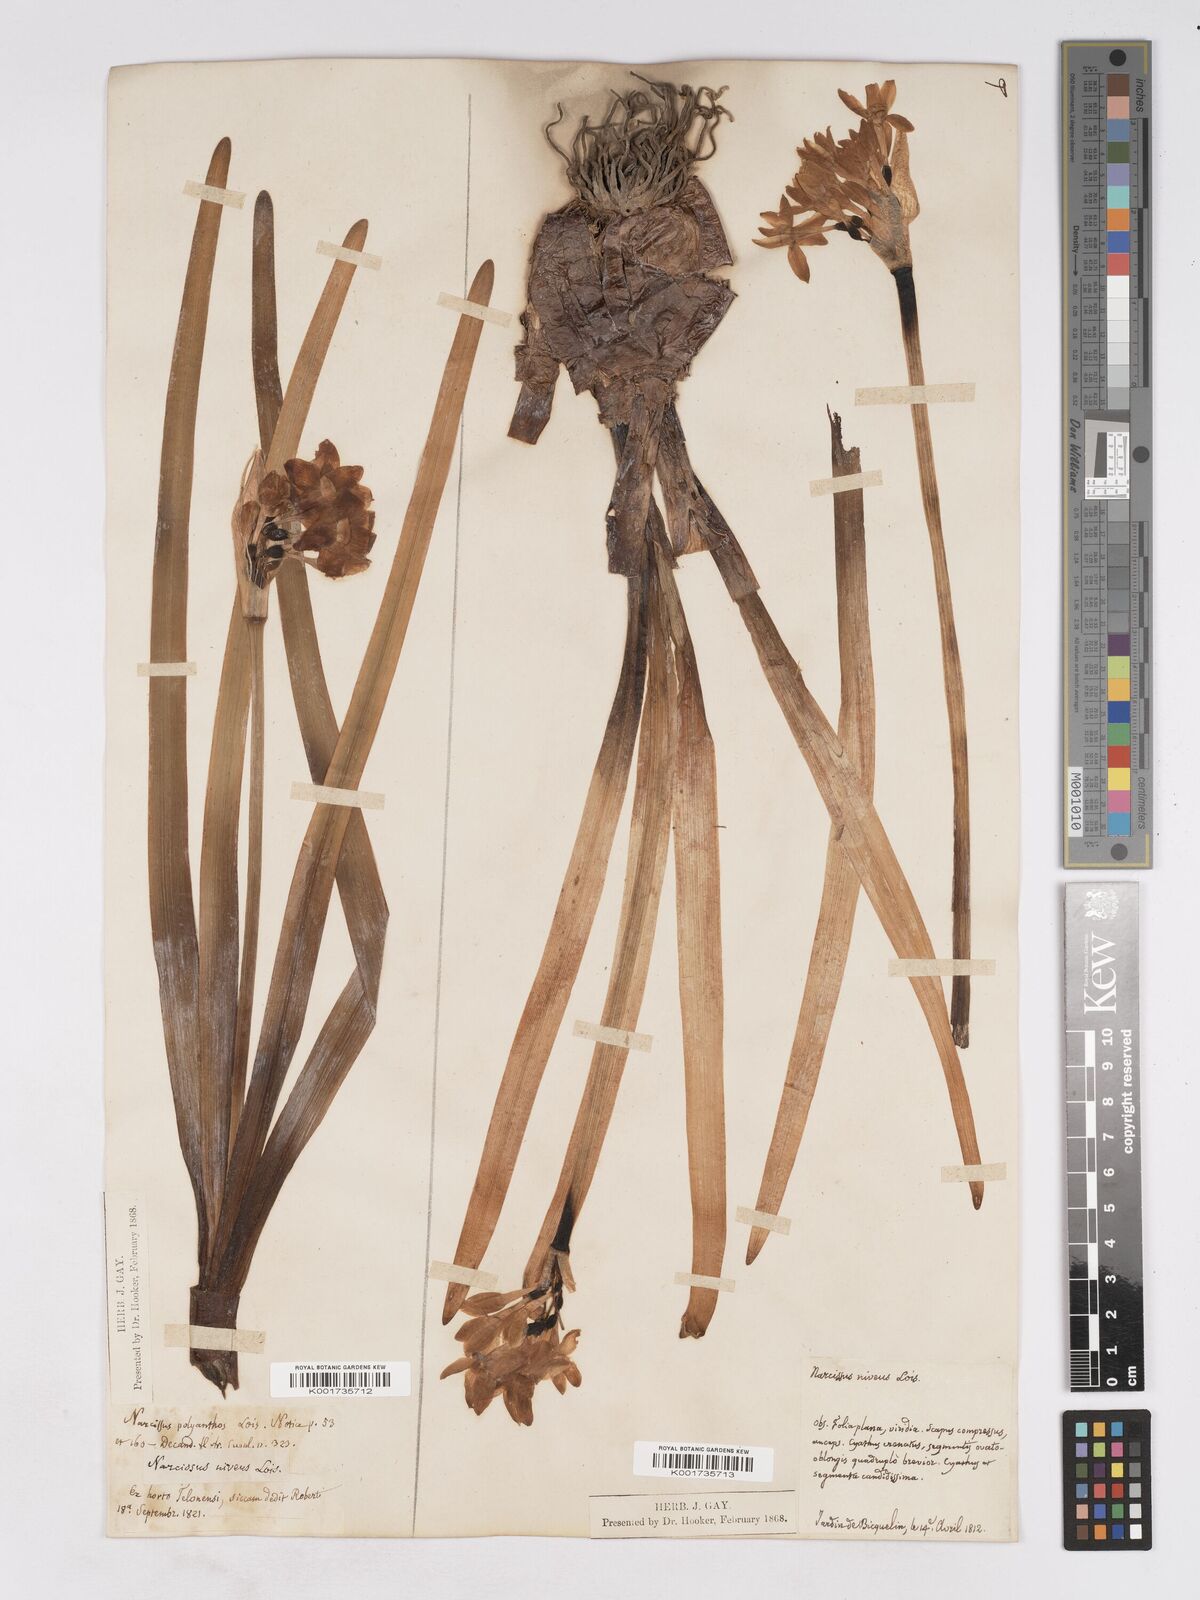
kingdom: Plantae
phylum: Tracheophyta
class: Liliopsida
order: Asparagales
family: Amaryllidaceae
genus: Narcissus
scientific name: Narcissus
